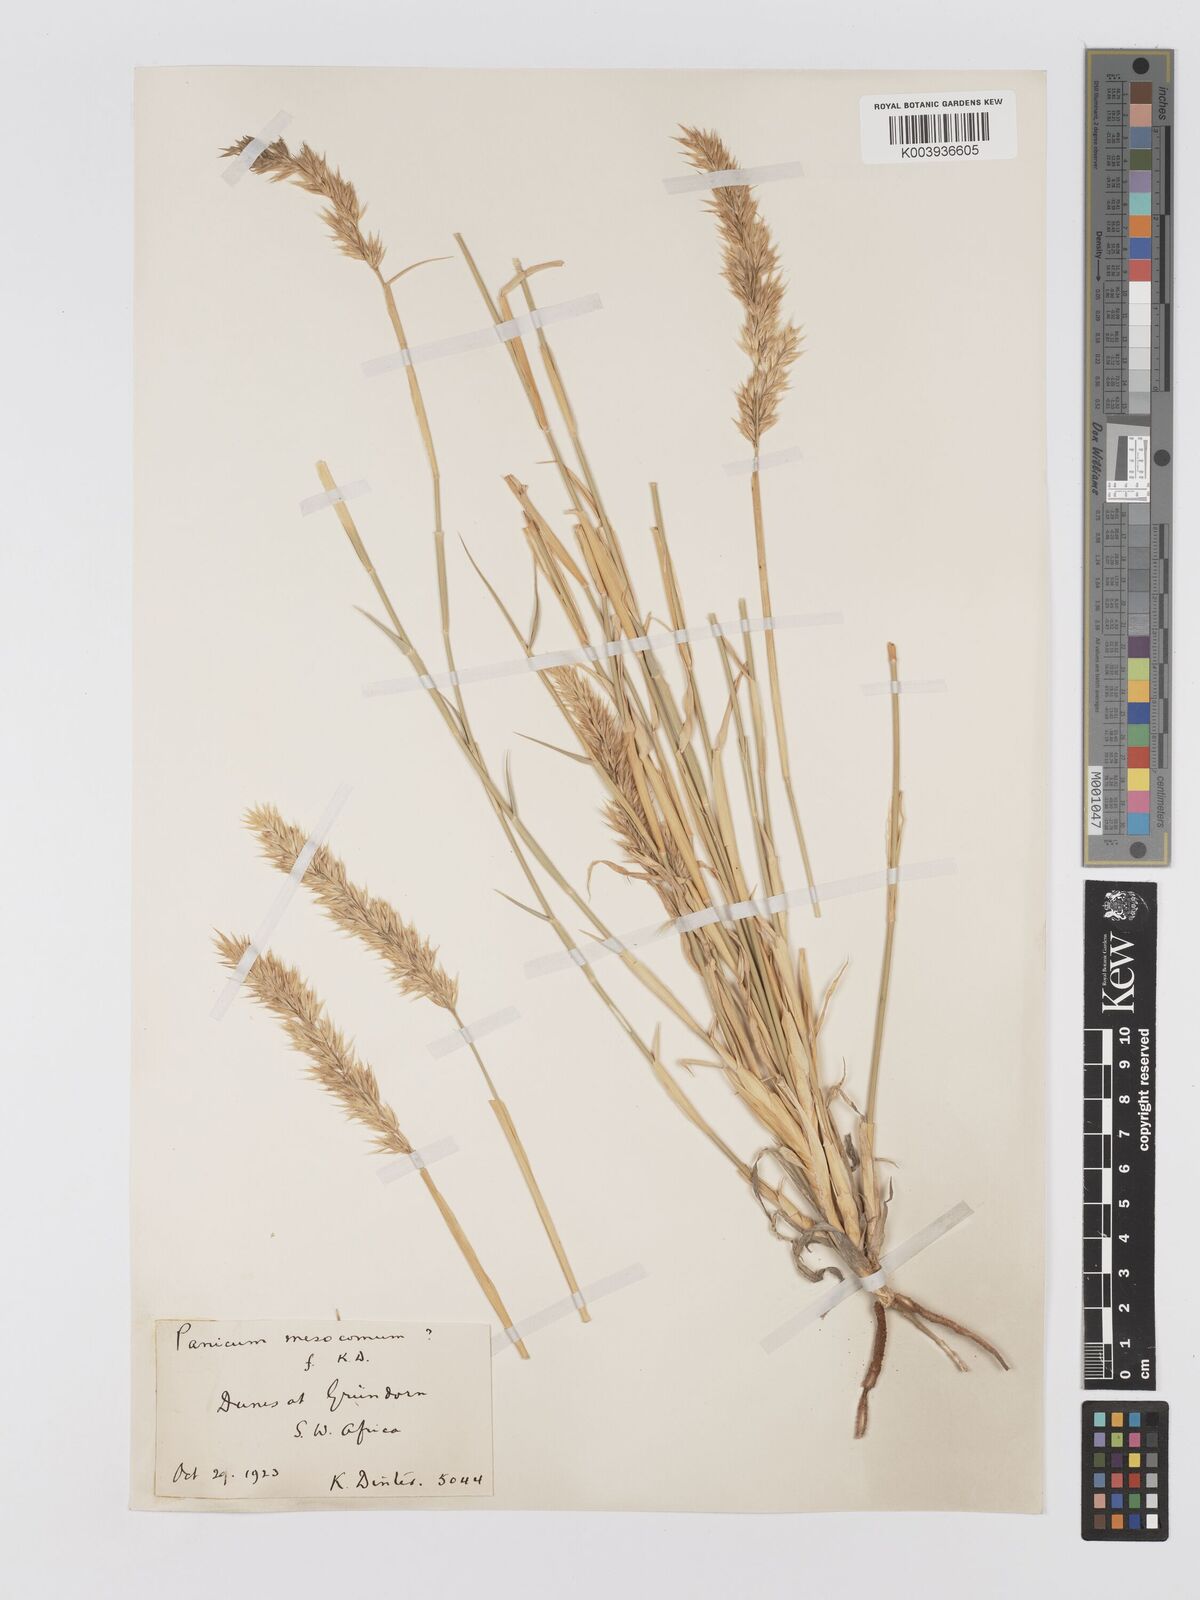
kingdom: Plantae
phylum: Tracheophyta
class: Liliopsida
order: Poales
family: Poaceae
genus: Centropodia
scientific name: Centropodia glauca
